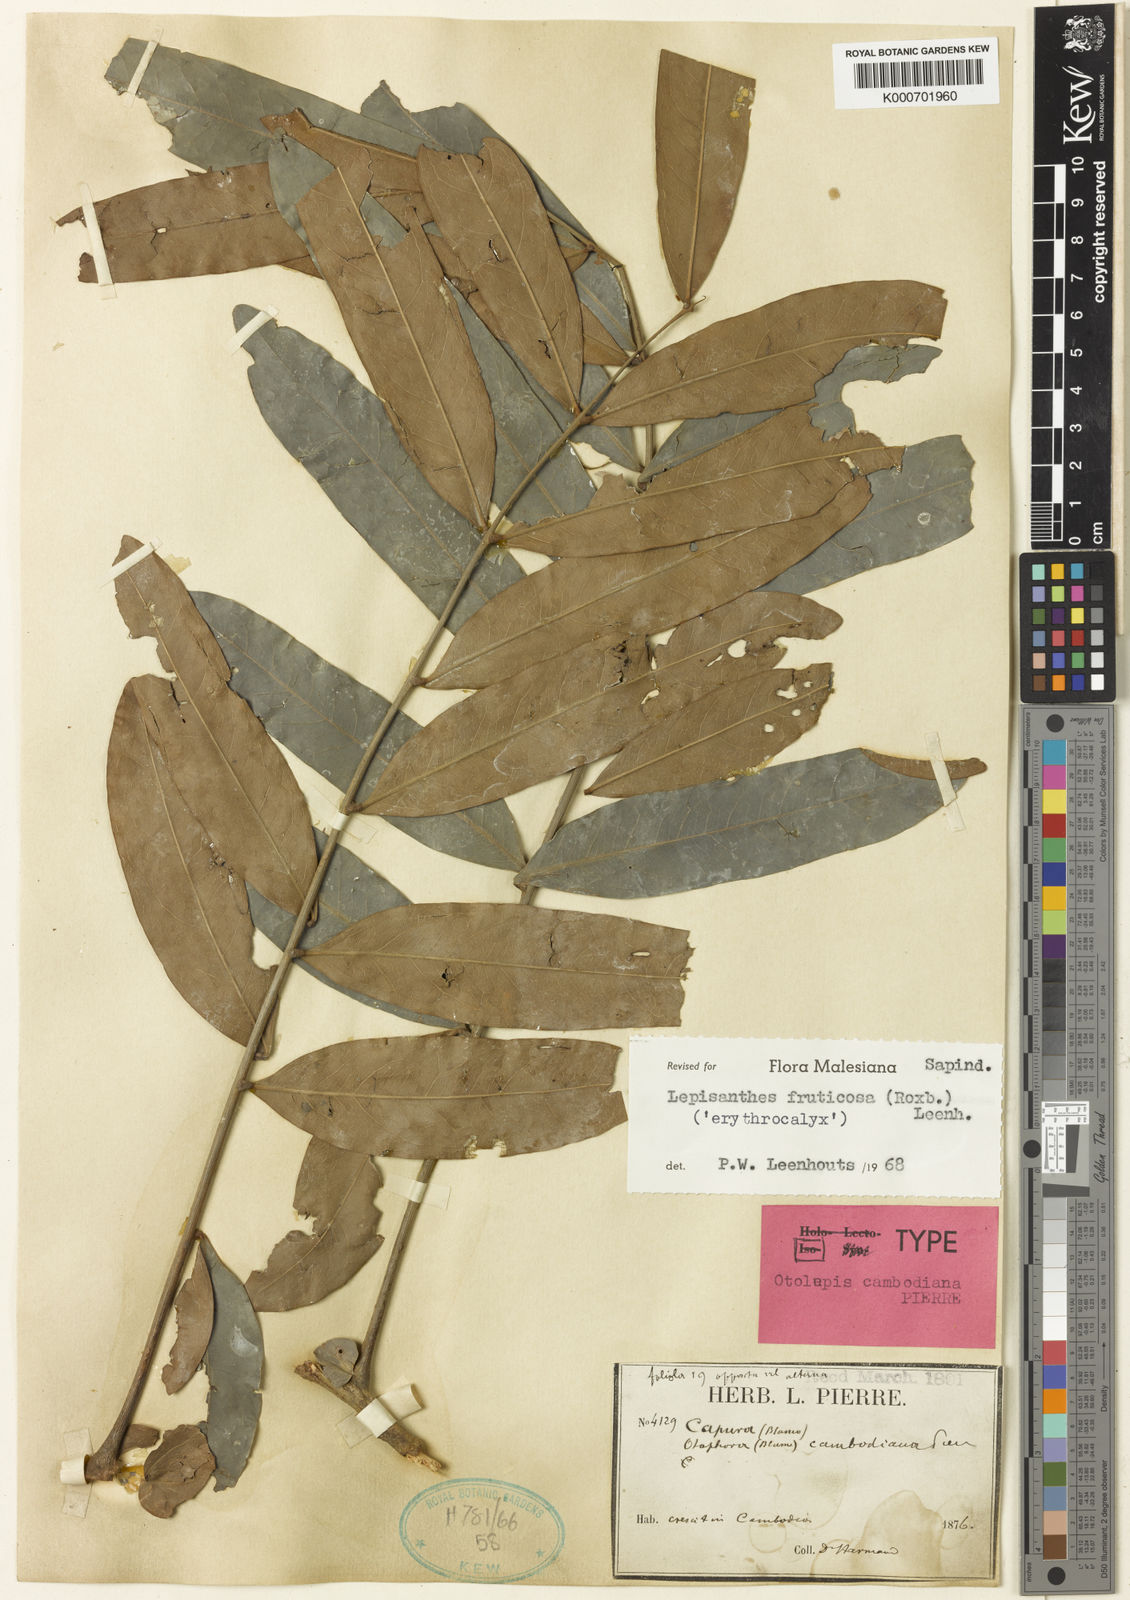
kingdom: Plantae
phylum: Tracheophyta
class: Magnoliopsida
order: Sapindales
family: Sapindaceae
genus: Lepisanthes
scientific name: Lepisanthes fruticosa
